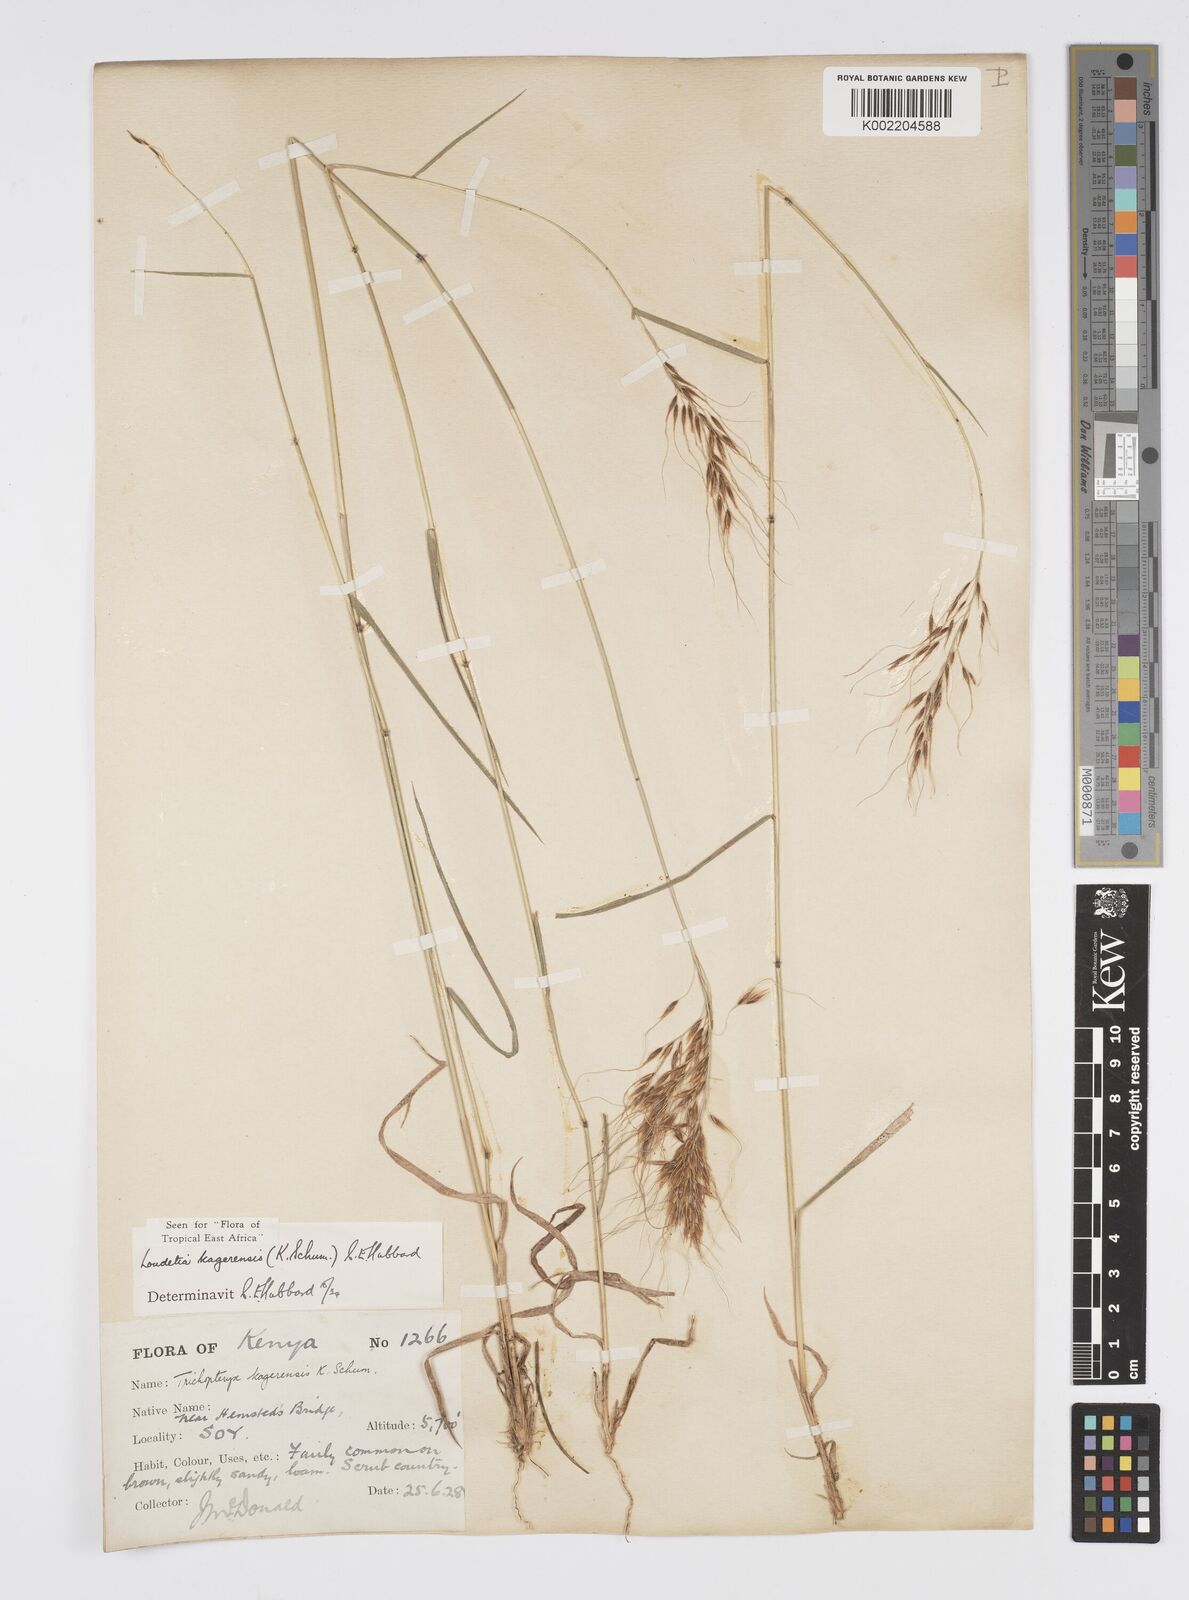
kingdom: Plantae
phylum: Tracheophyta
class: Liliopsida
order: Poales
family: Poaceae
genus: Loudetia
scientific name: Loudetia kagerensis
